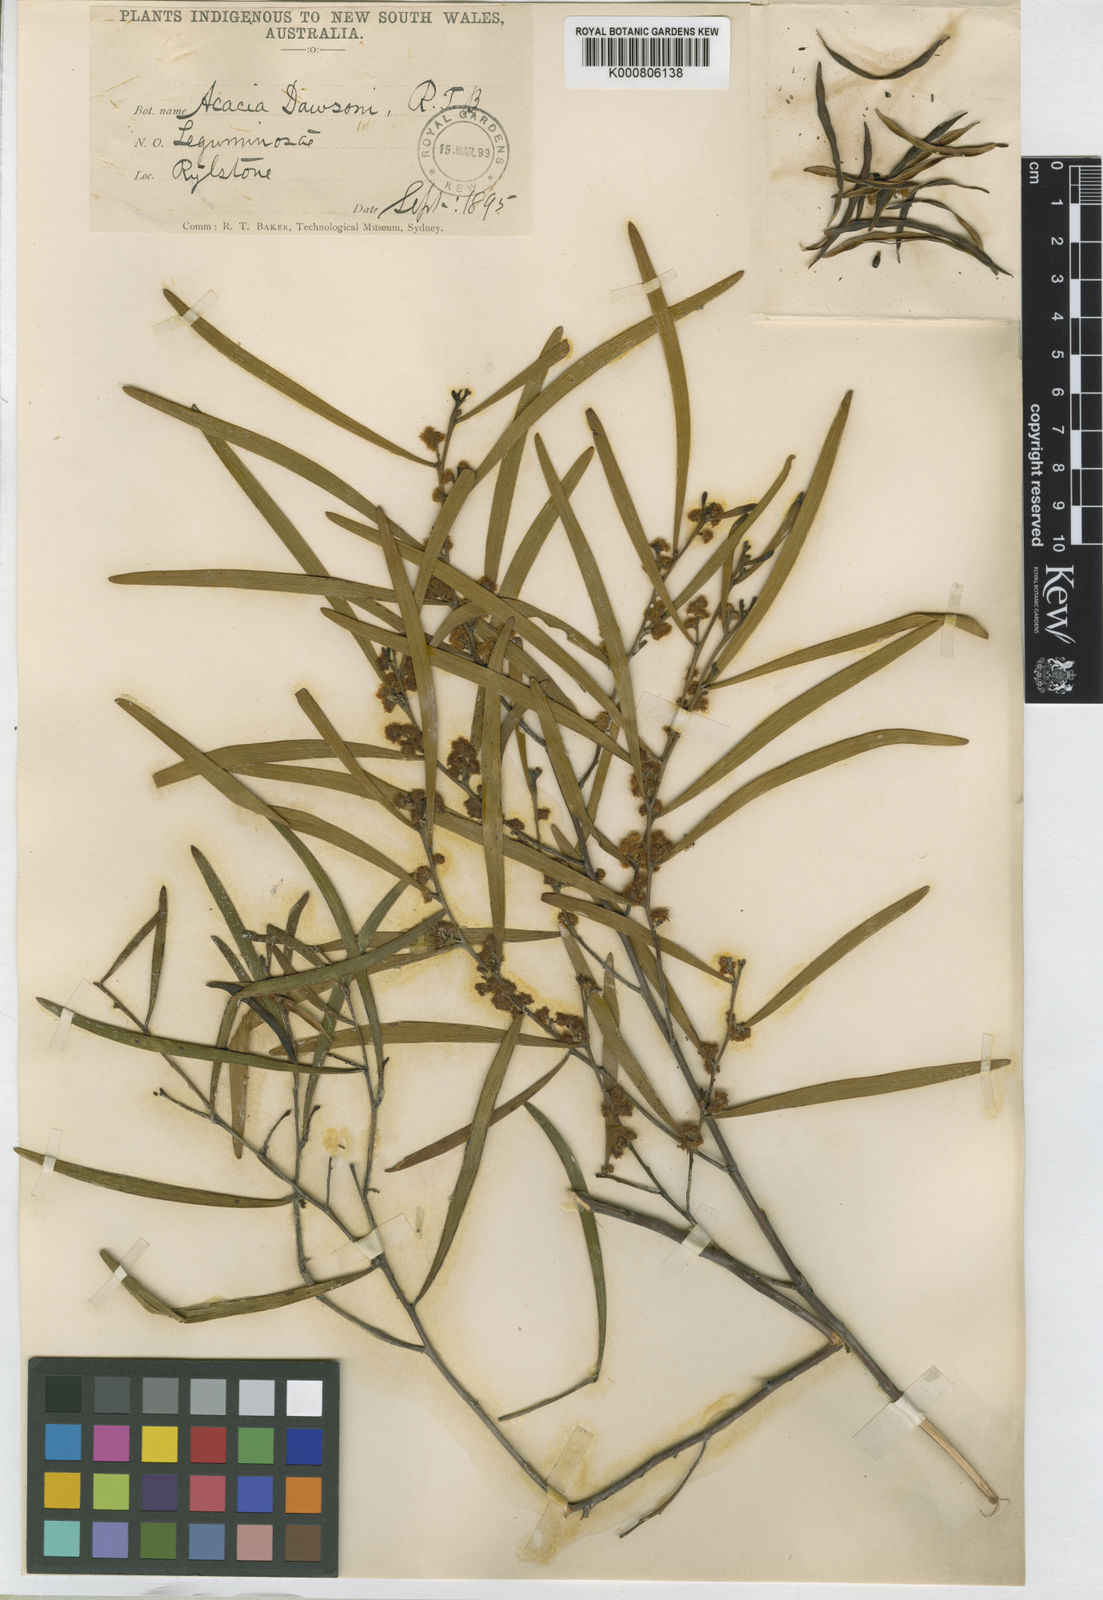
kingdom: Plantae
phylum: Tracheophyta
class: Magnoliopsida
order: Fabales
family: Fabaceae
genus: Acacia
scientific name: Acacia dawsonii
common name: Mitta wattle
